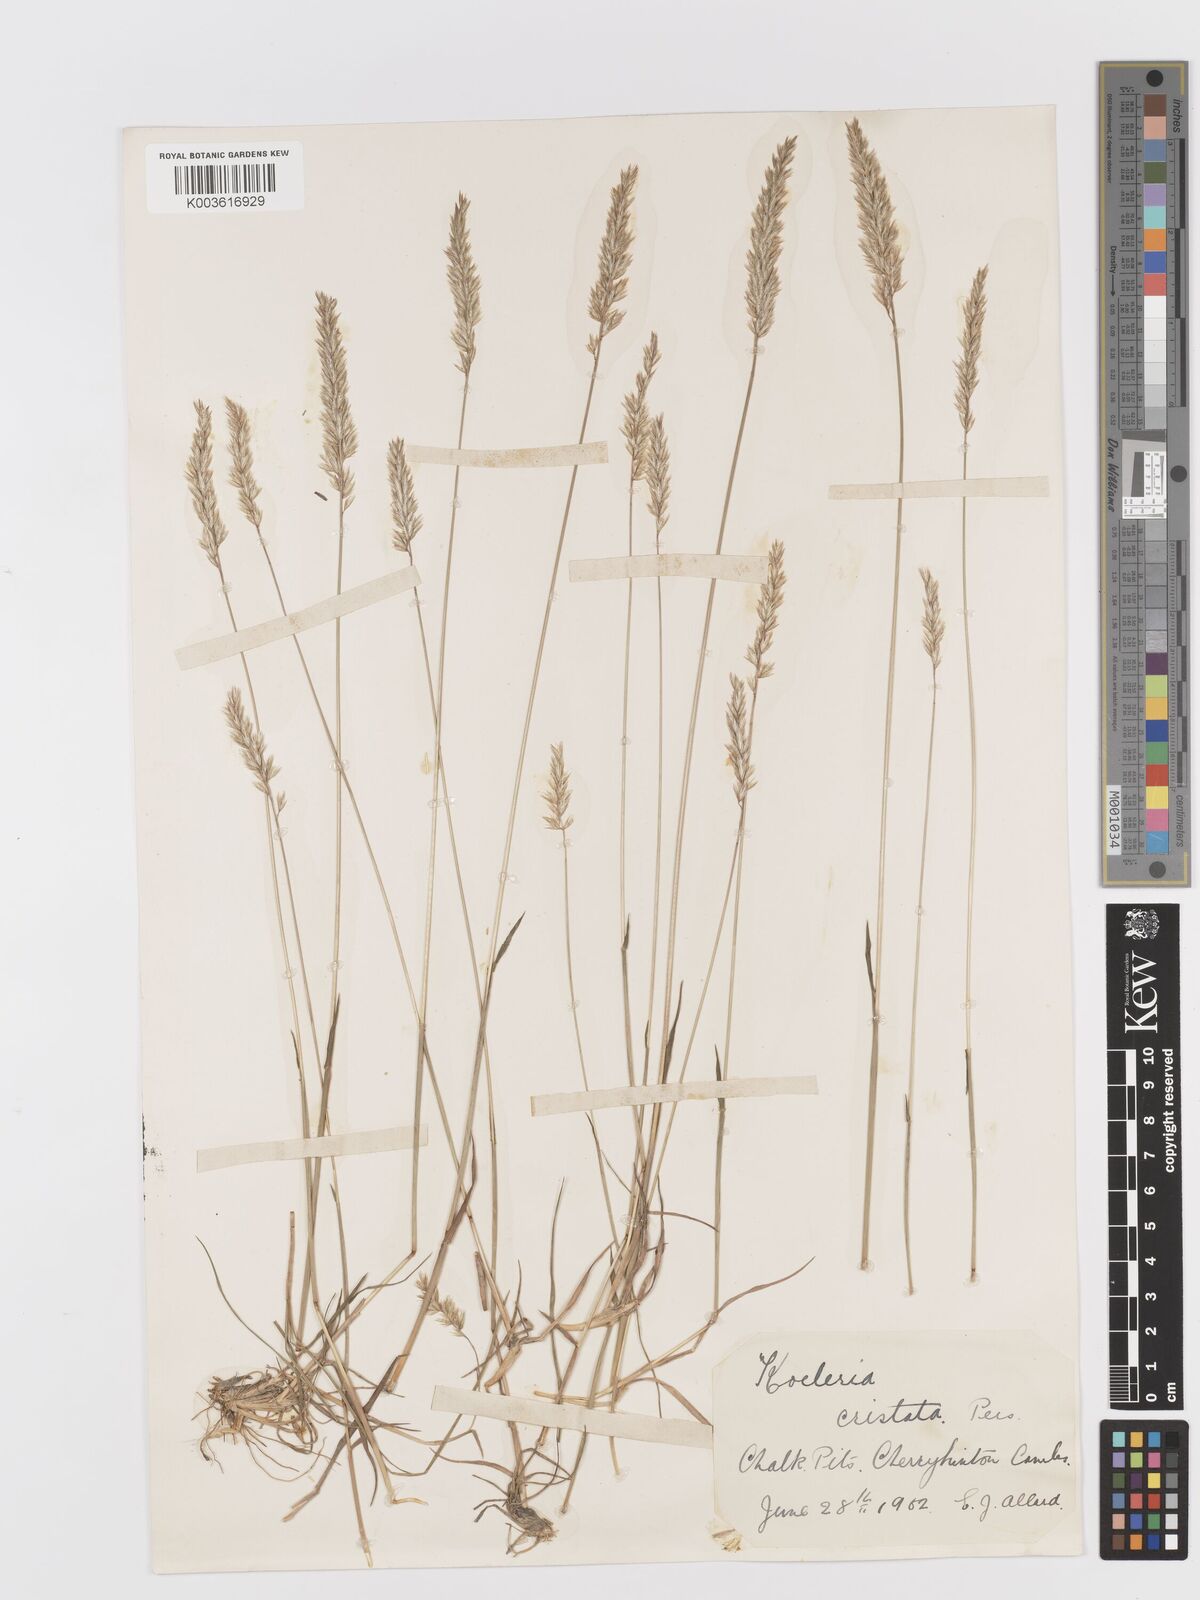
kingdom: Plantae
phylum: Tracheophyta
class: Liliopsida
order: Poales
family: Poaceae
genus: Koeleria
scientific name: Koeleria macrantha
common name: Crested hair-grass
